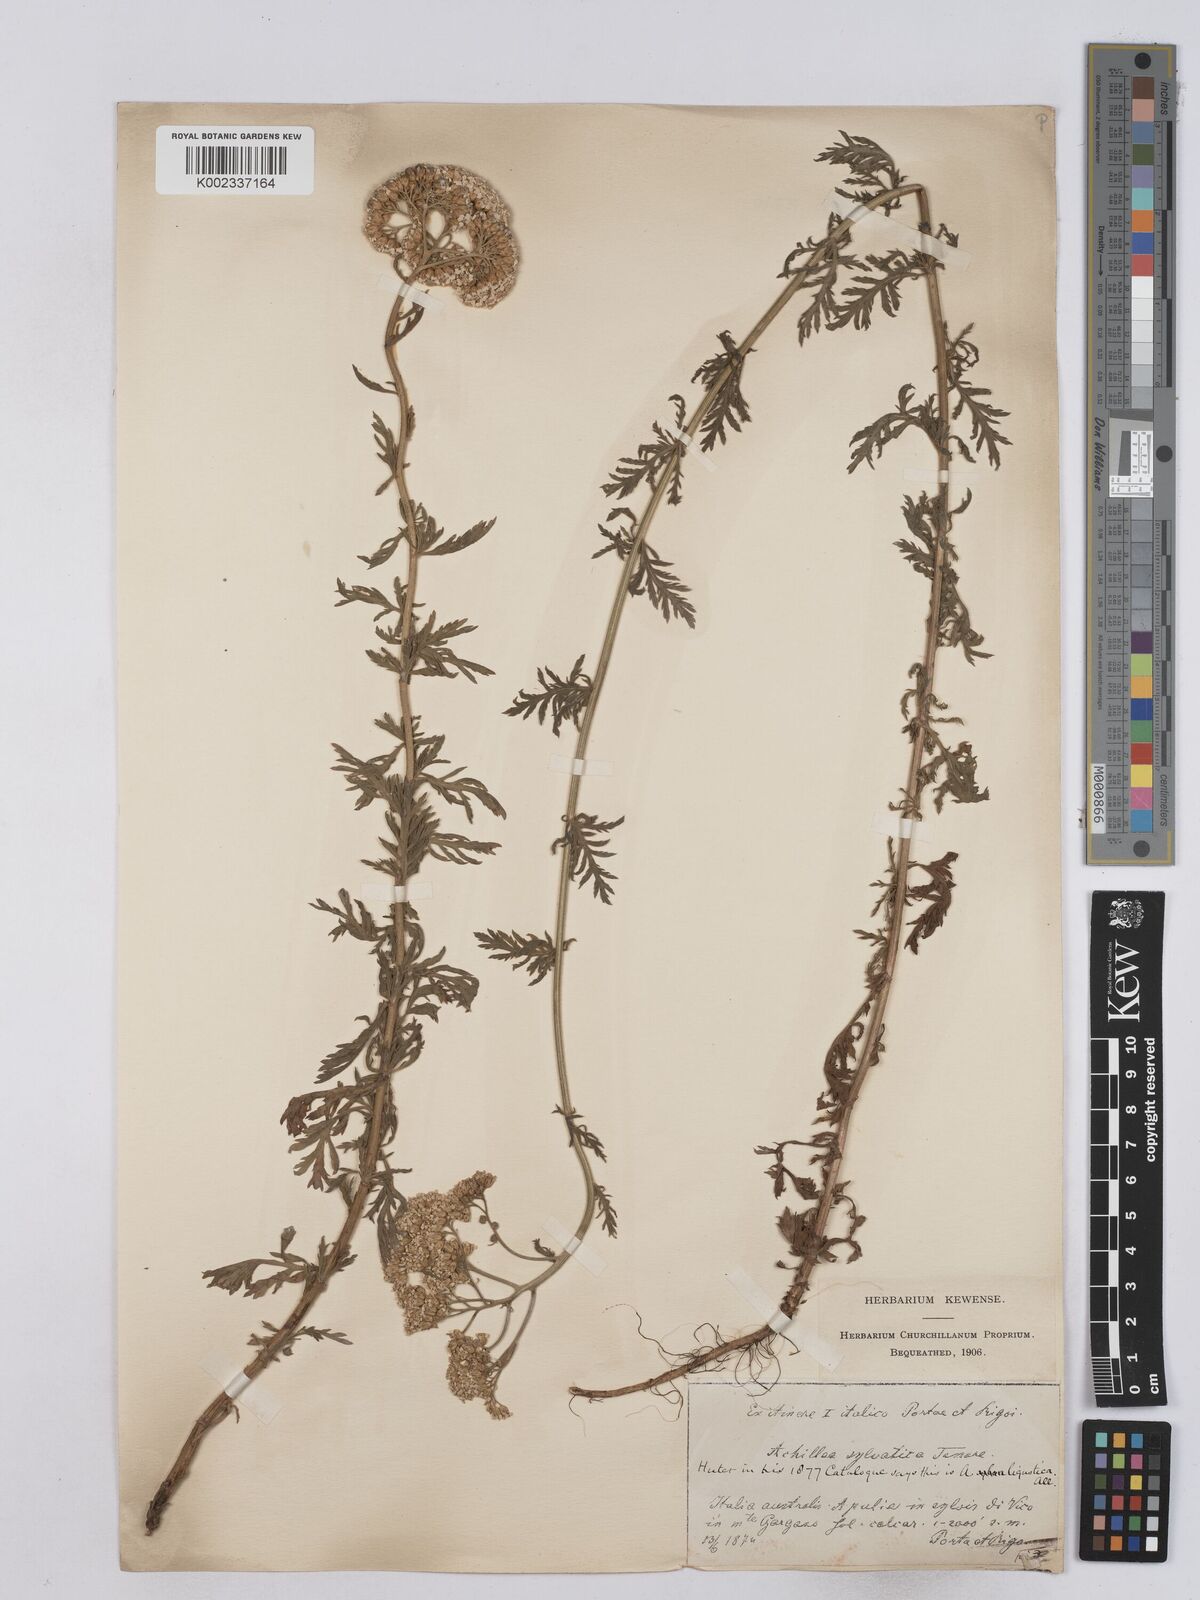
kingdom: Plantae
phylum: Tracheophyta
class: Magnoliopsida
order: Asterales
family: Asteraceae
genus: Achillea
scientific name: Achillea ligustica
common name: Southern yarrow
